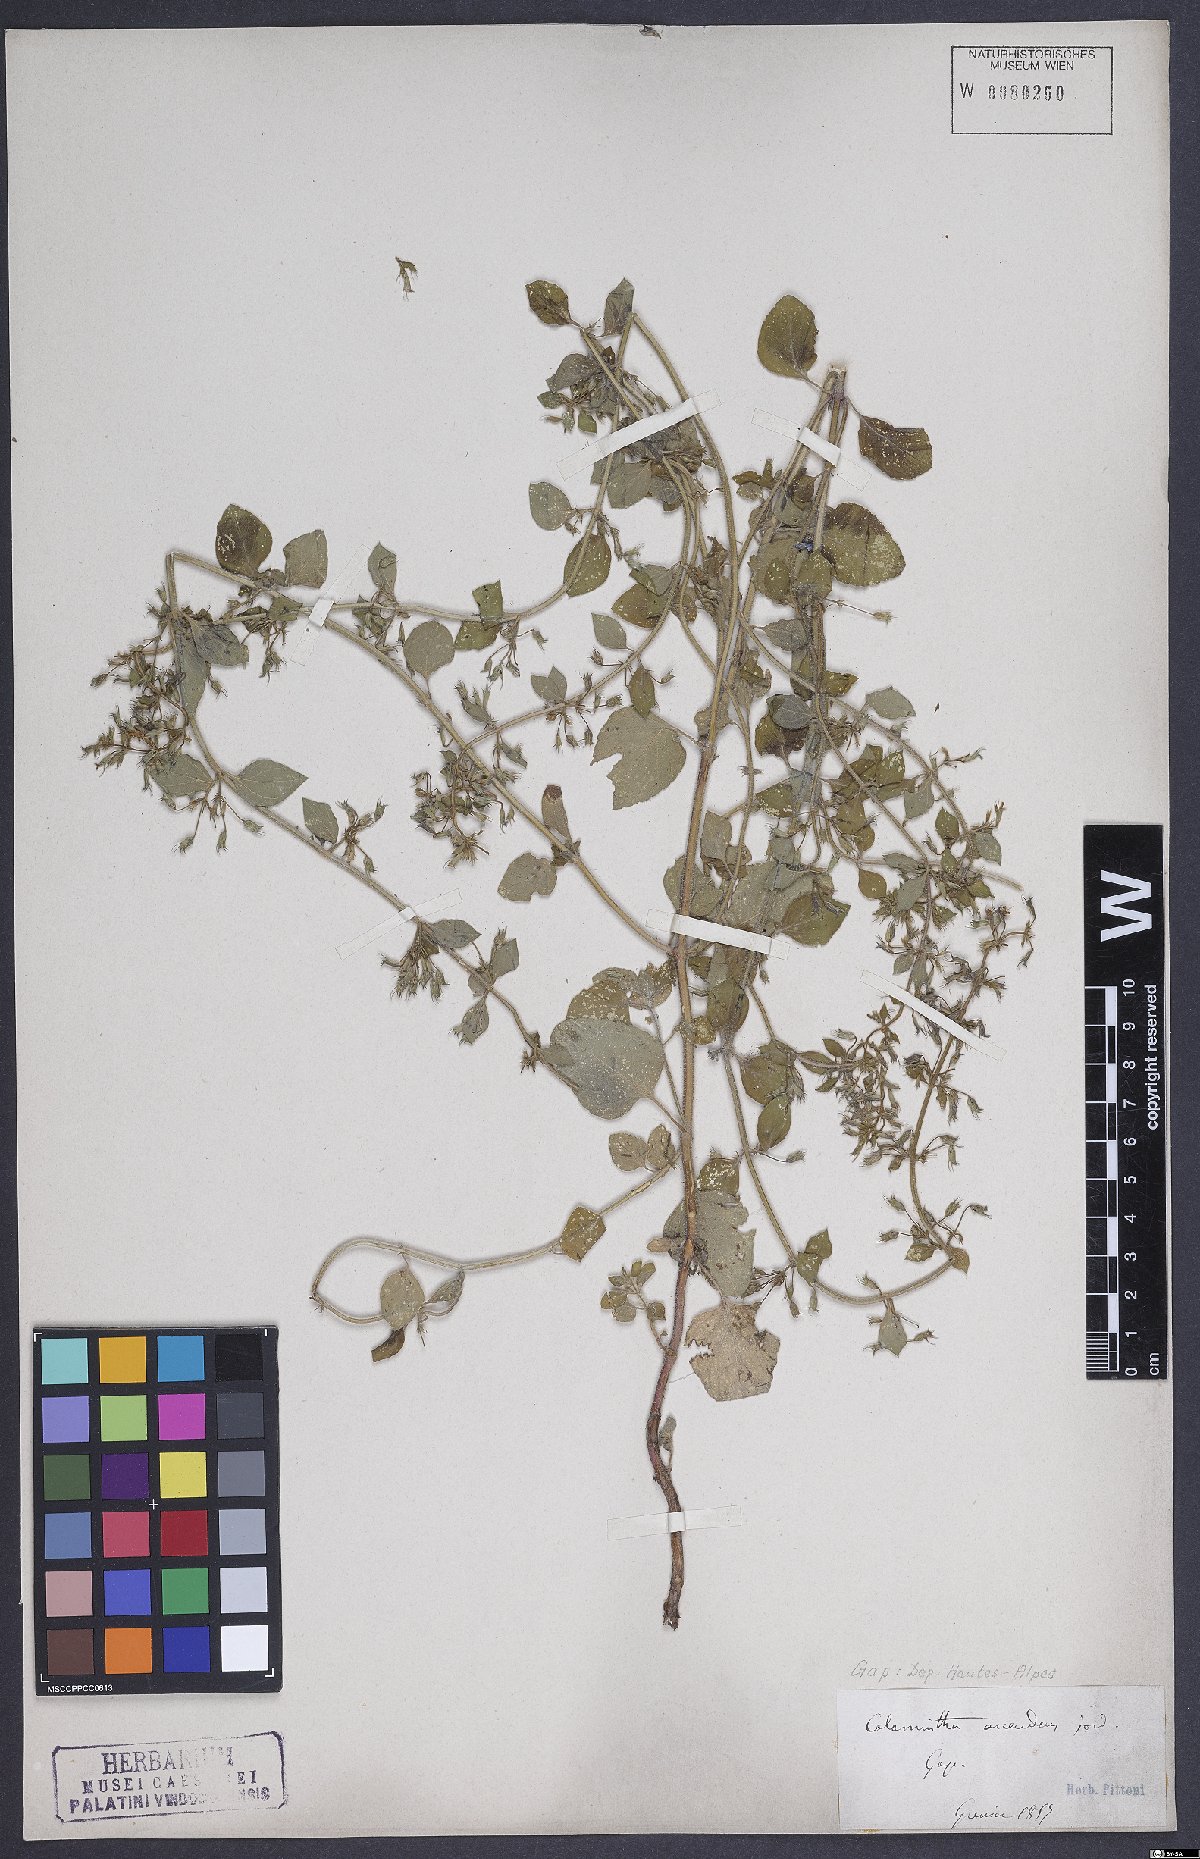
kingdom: Plantae
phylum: Tracheophyta
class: Magnoliopsida
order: Lamiales
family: Lamiaceae
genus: Clinopodium
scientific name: Clinopodium menthifolium
